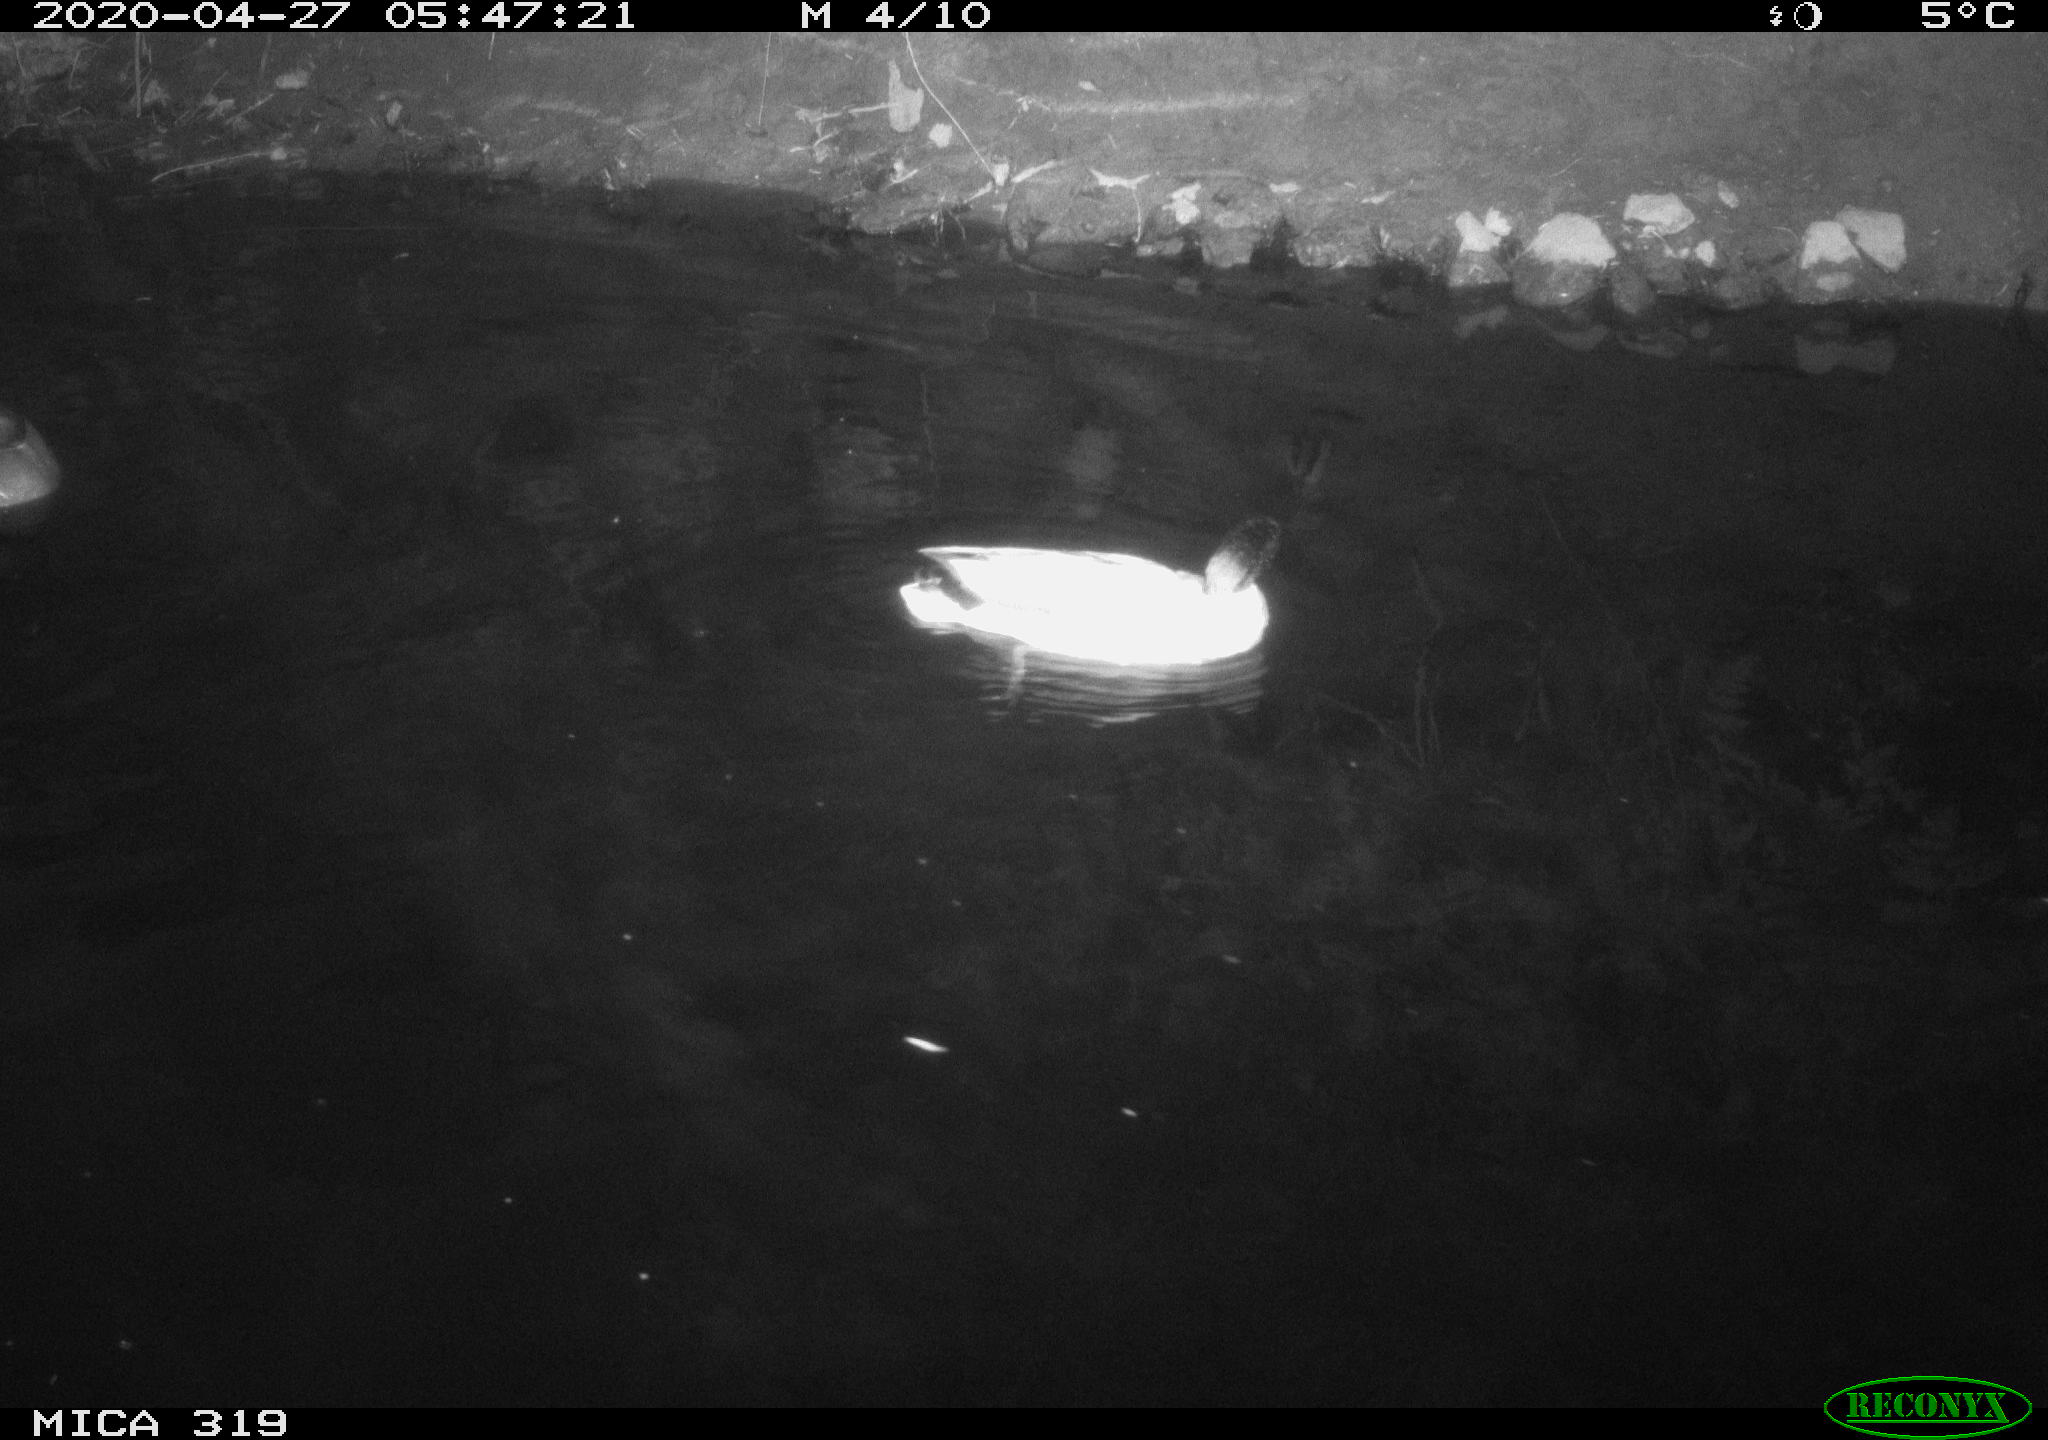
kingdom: Animalia
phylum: Chordata
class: Aves
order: Anseriformes
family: Anatidae
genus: Anas
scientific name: Anas platyrhynchos
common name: Mallard
